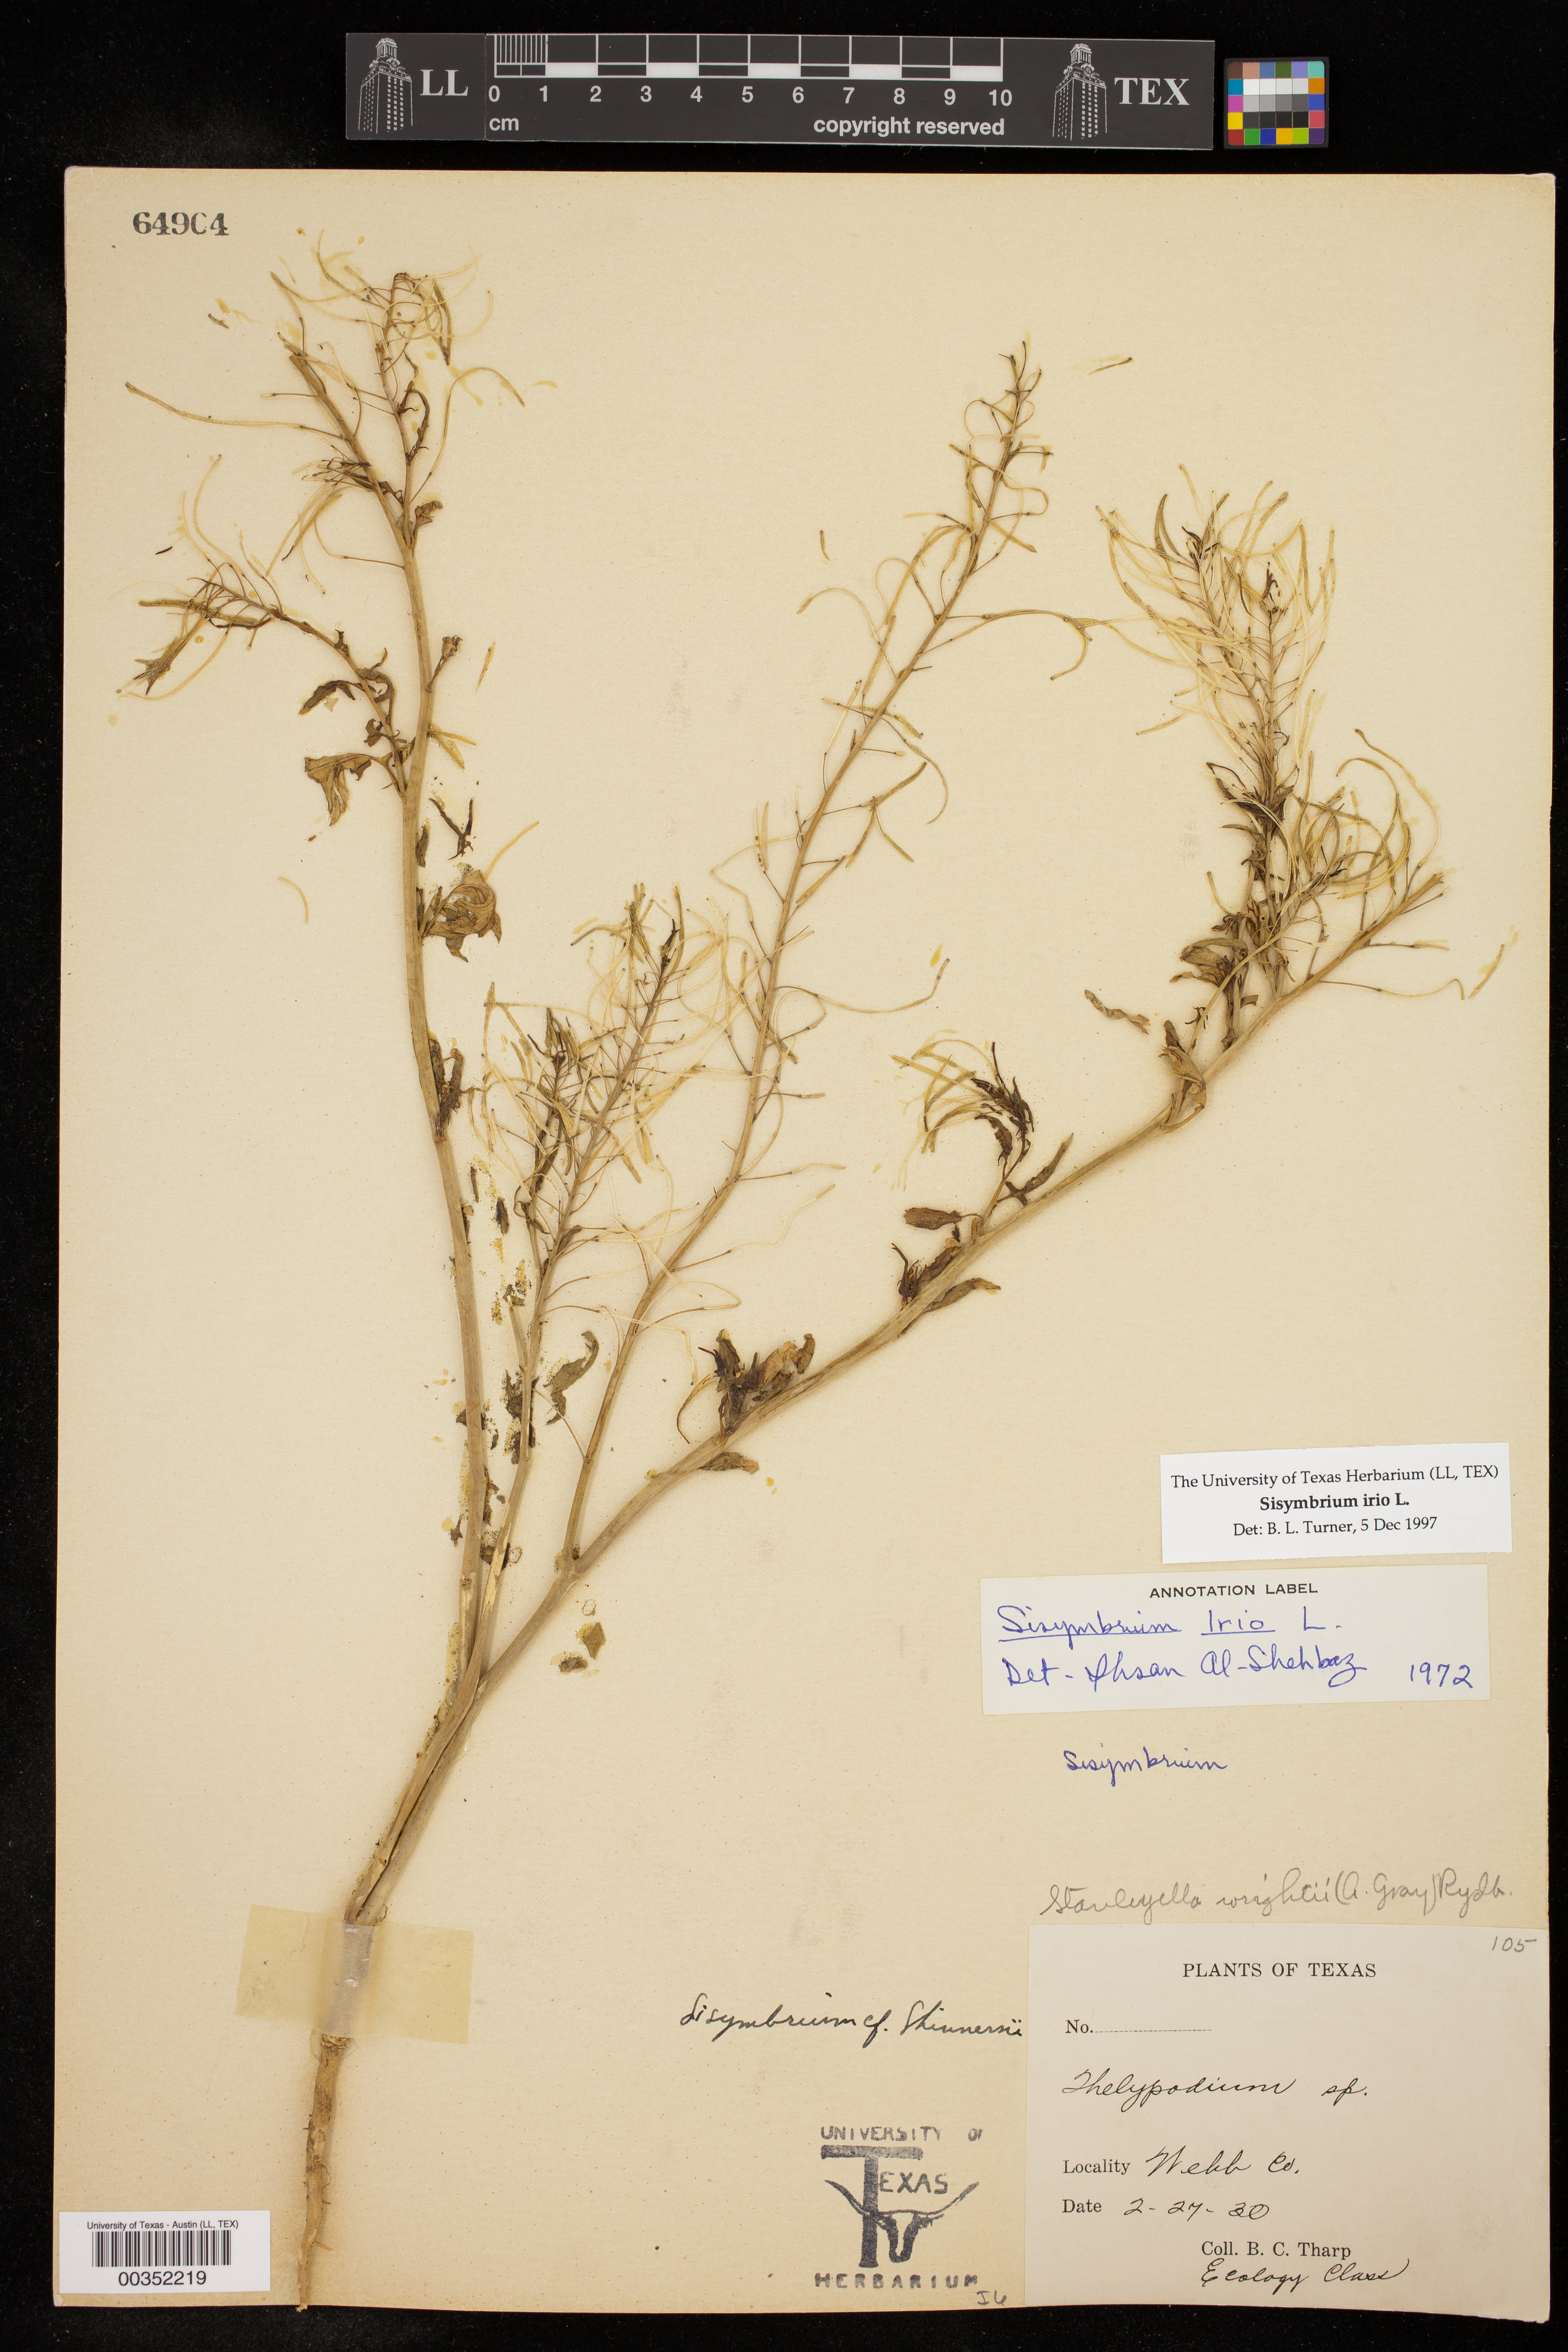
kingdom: Plantae
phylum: Tracheophyta
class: Magnoliopsida
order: Brassicales
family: Brassicaceae
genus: Sisymbrium
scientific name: Sisymbrium irio
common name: London rocket
